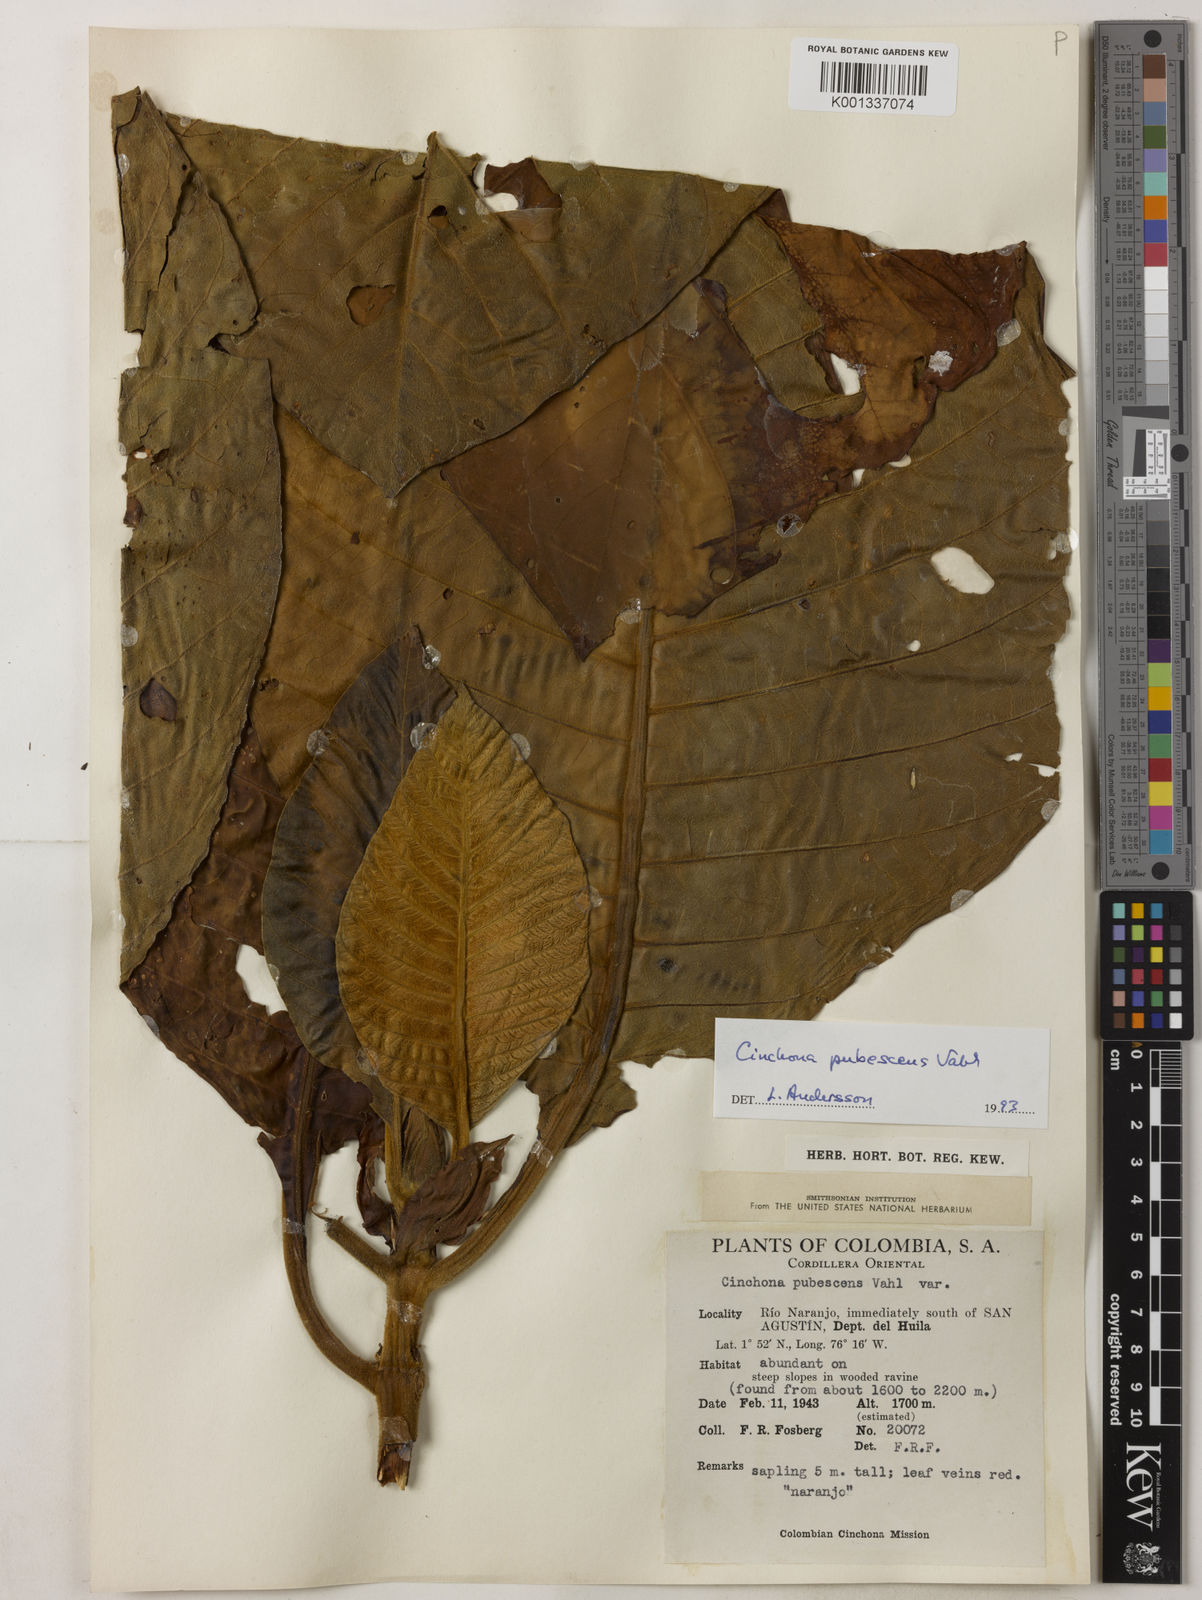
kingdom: Plantae
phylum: Tracheophyta
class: Magnoliopsida
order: Gentianales
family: Rubiaceae
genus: Cinchona
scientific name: Cinchona pubescens
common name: Quinine
